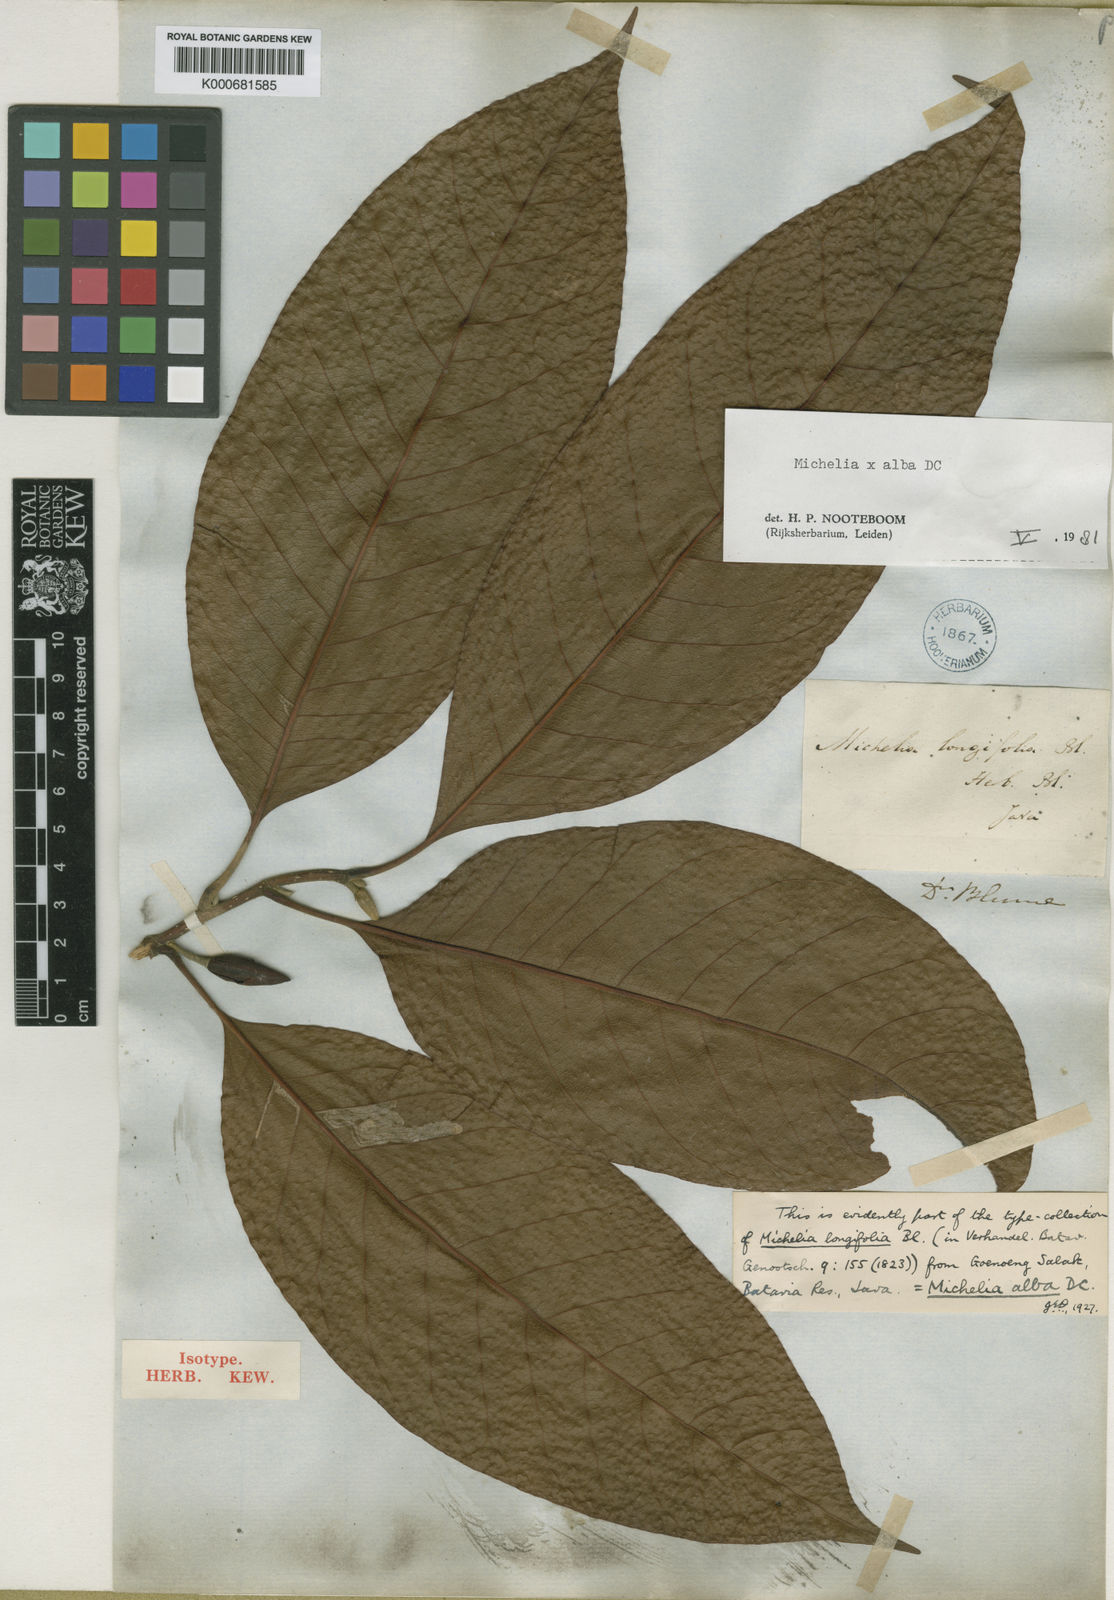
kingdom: Plantae
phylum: Tracheophyta
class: Magnoliopsida
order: Magnoliales
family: Magnoliaceae
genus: Magnolia
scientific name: Magnolia alba
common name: White champaca
